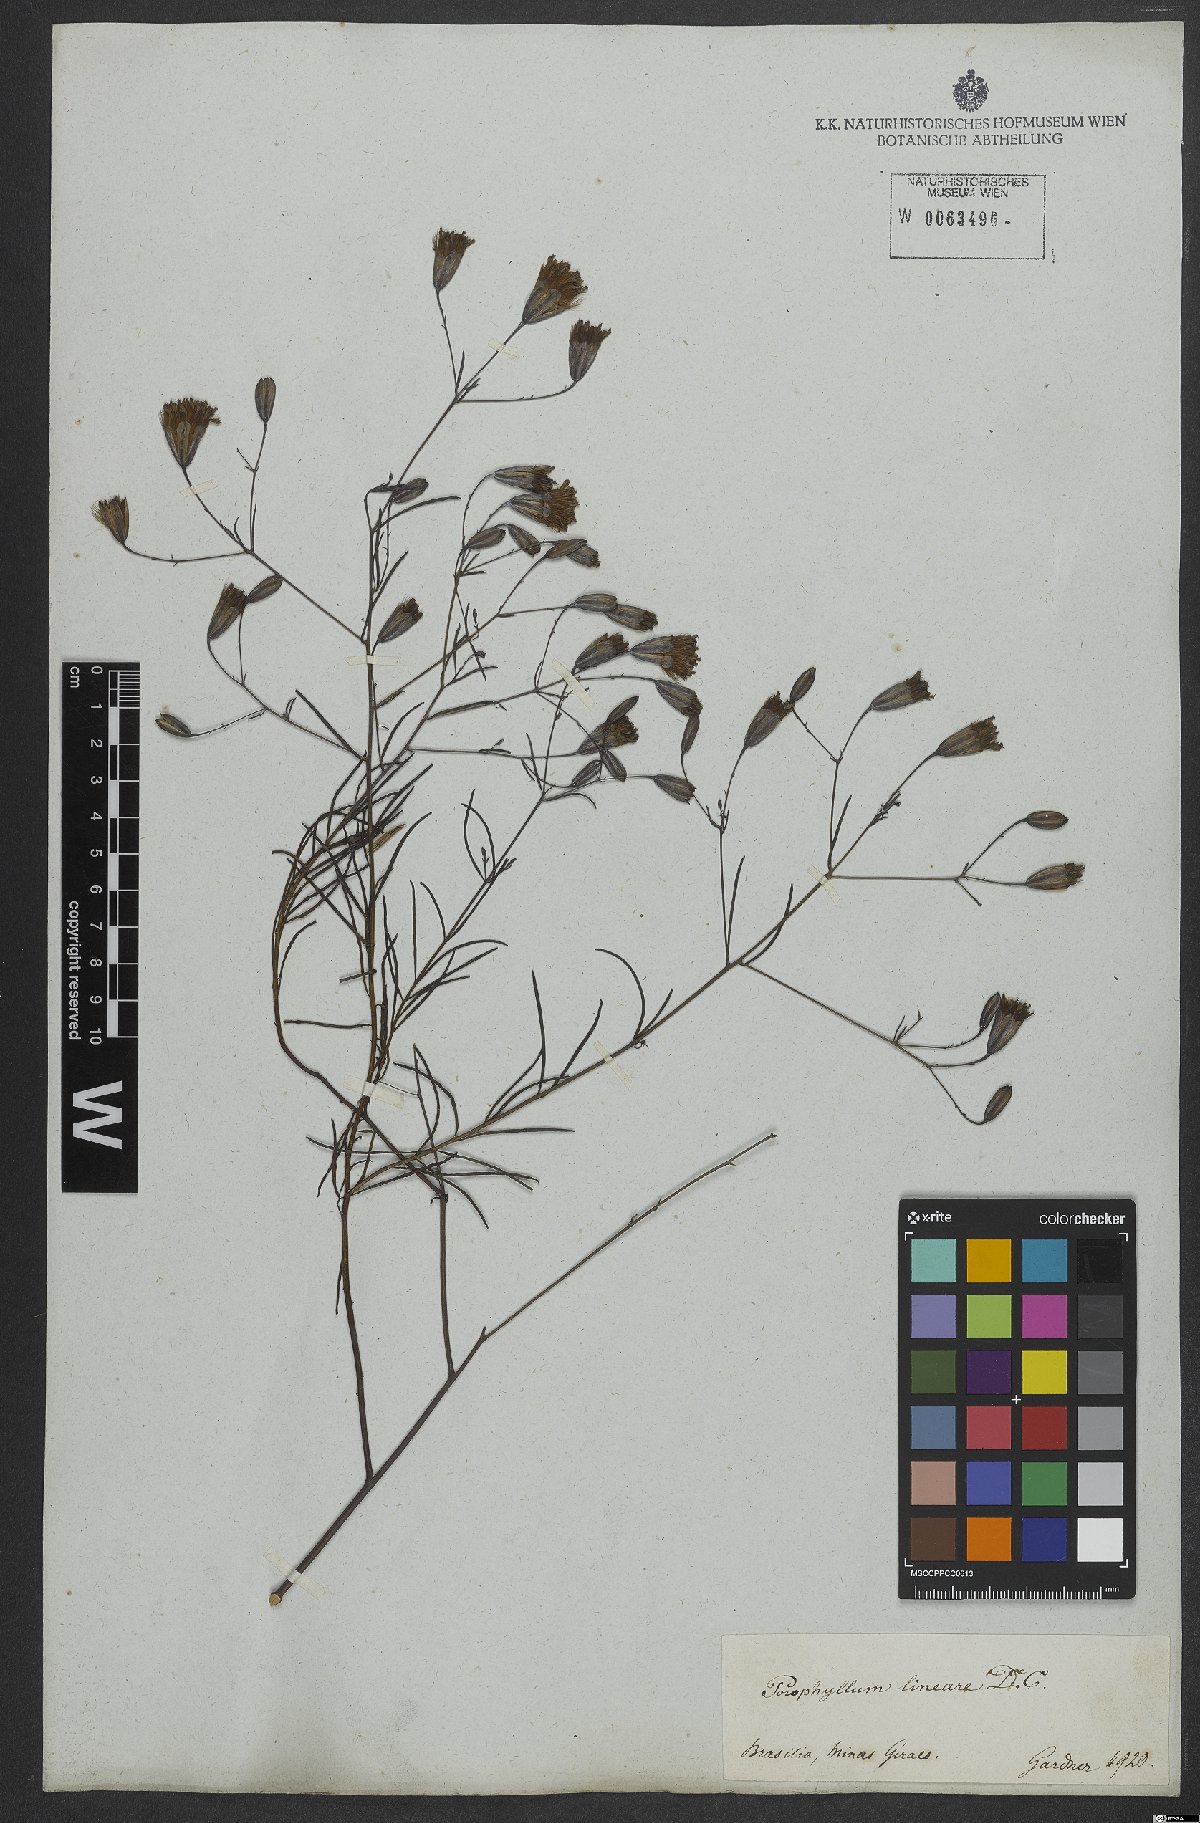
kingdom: Plantae
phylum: Tracheophyta
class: Magnoliopsida
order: Asterales
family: Asteraceae
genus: Porophyllum
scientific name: Porophyllum obscurum
